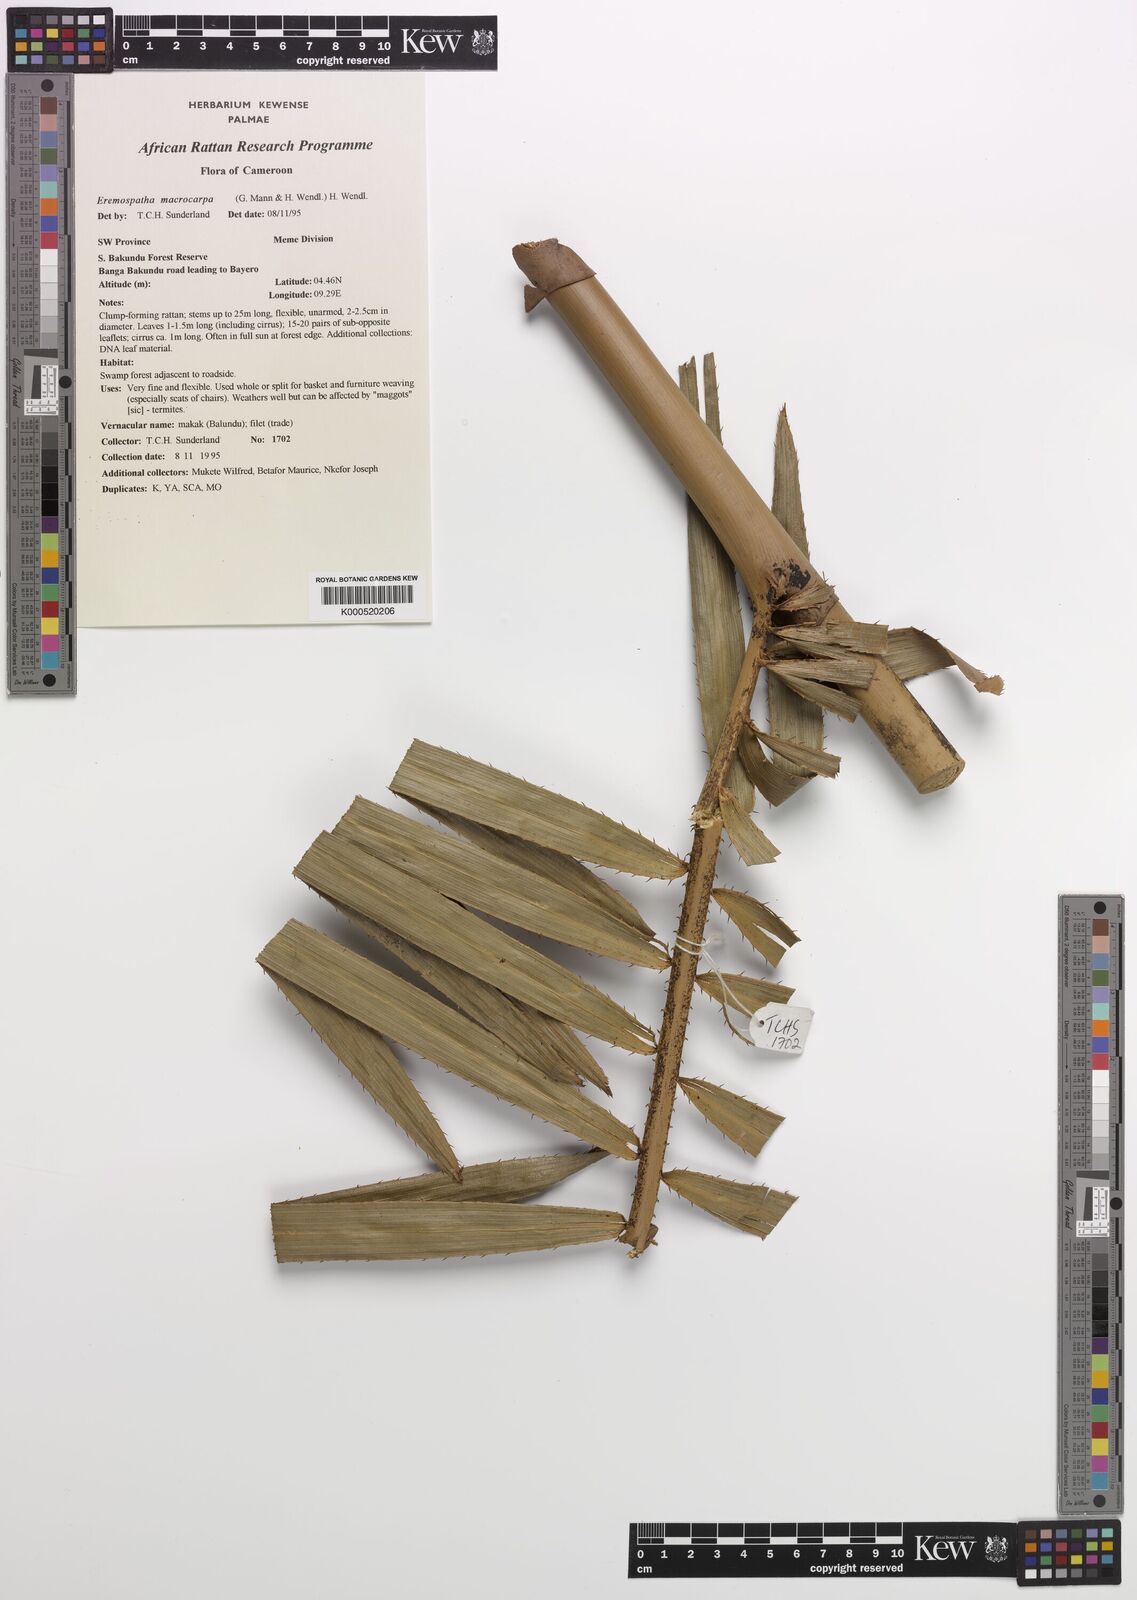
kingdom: Plantae
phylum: Tracheophyta
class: Liliopsida
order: Arecales
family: Arecaceae
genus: Eremospatha
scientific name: Eremospatha
